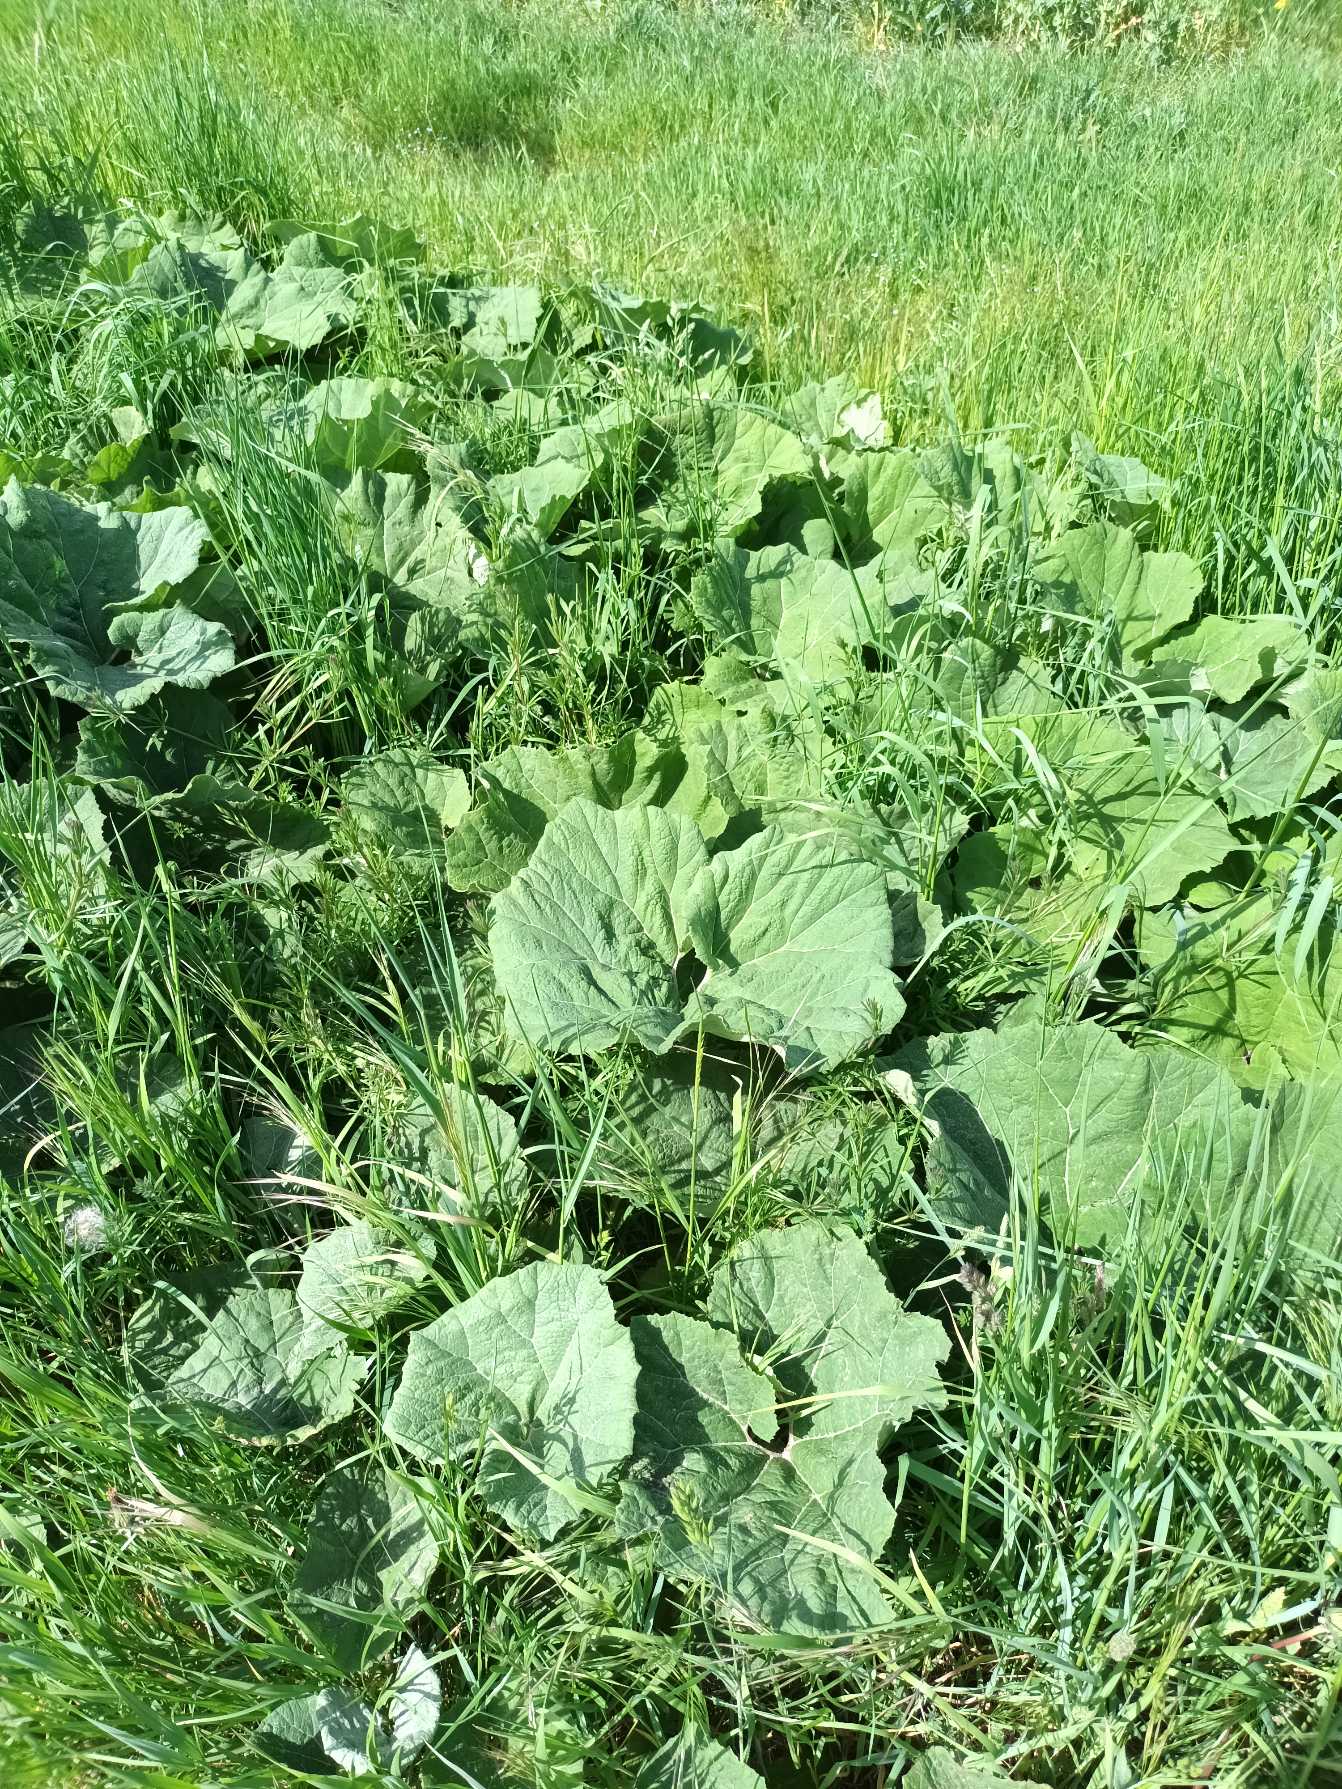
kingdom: Plantae
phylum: Tracheophyta
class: Magnoliopsida
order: Asterales
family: Asteraceae
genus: Petasites
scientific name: Petasites hybridus
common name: Rød hestehov
